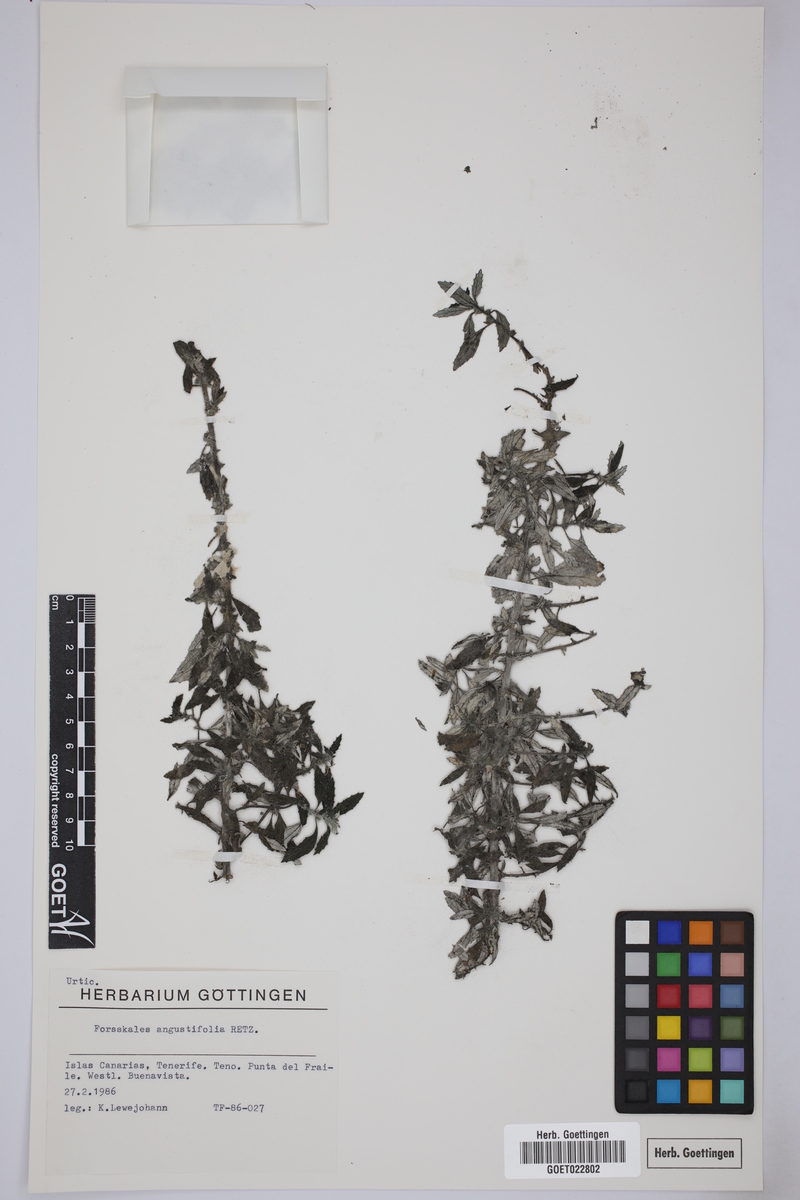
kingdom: Plantae
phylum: Tracheophyta
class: Magnoliopsida
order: Rosales
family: Urticaceae
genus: Forsskaolea
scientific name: Forsskaolea angustifolia
